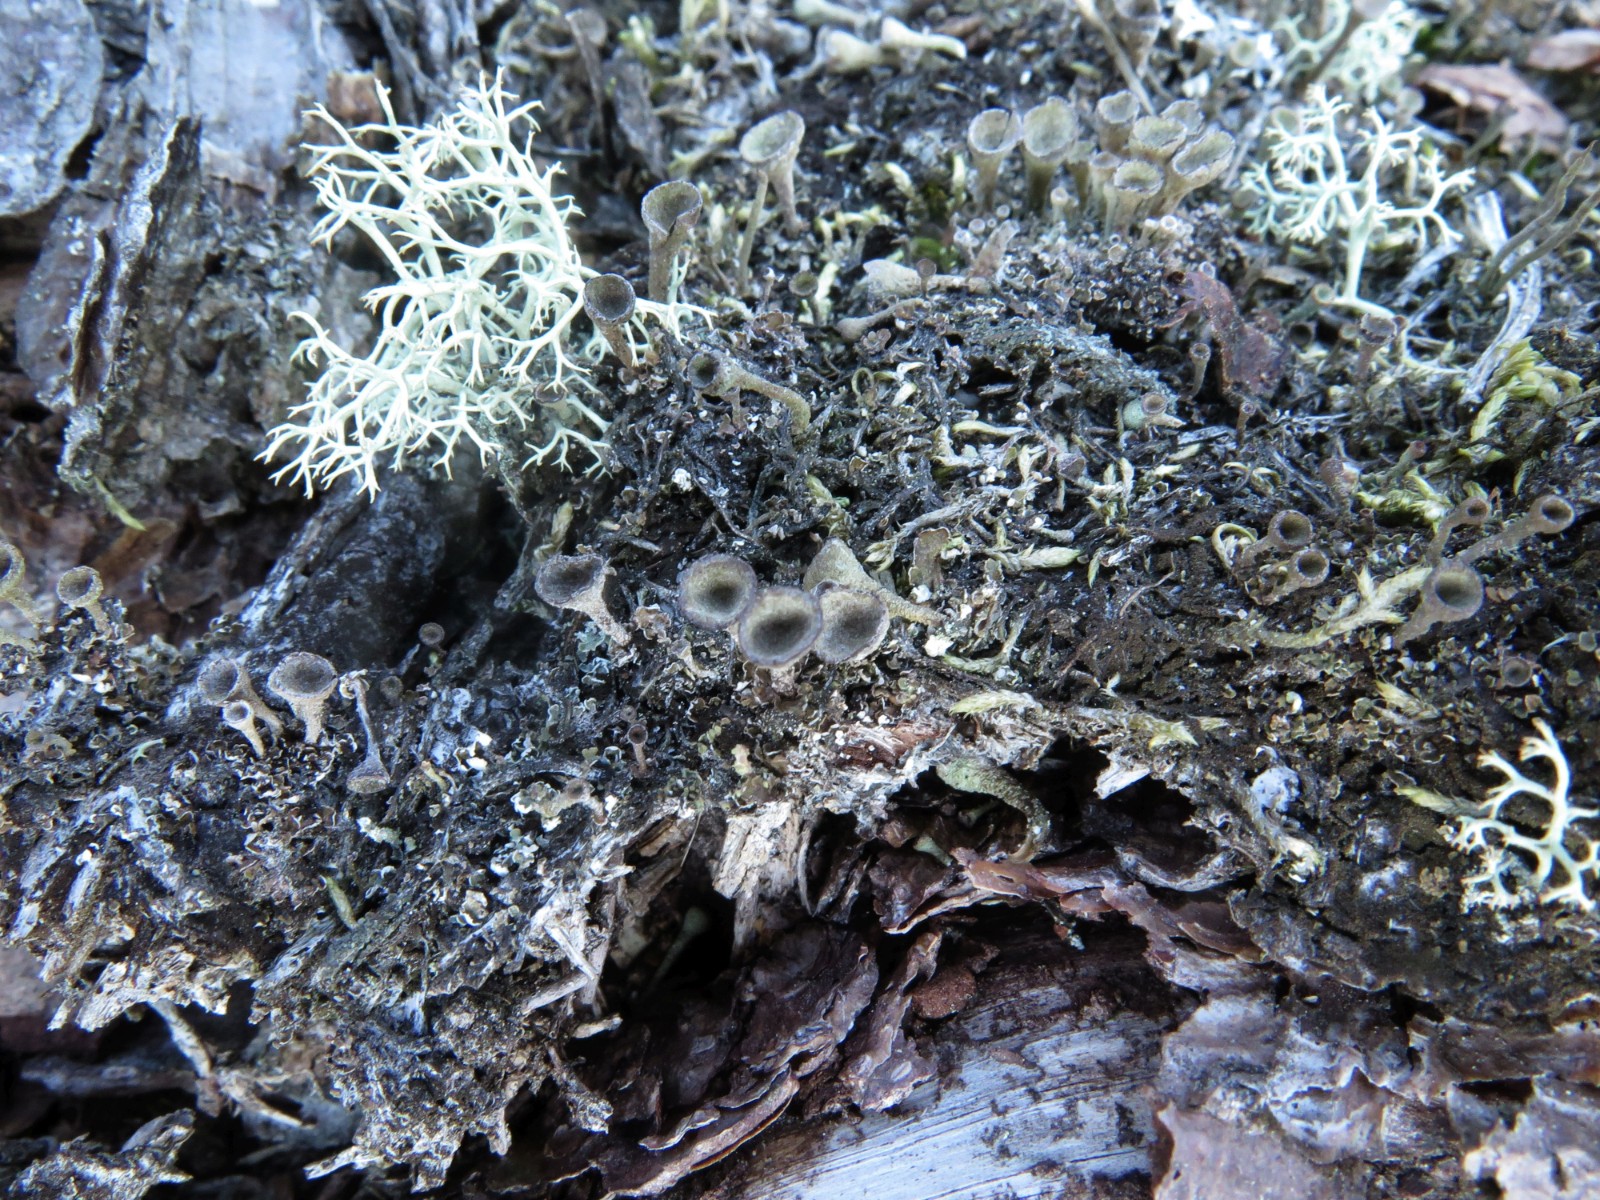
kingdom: Fungi
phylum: Ascomycota
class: Lecanoromycetes
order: Lecanorales
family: Cladoniaceae
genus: Cladonia
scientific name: Cladonia
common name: brungrøn bægerlav
